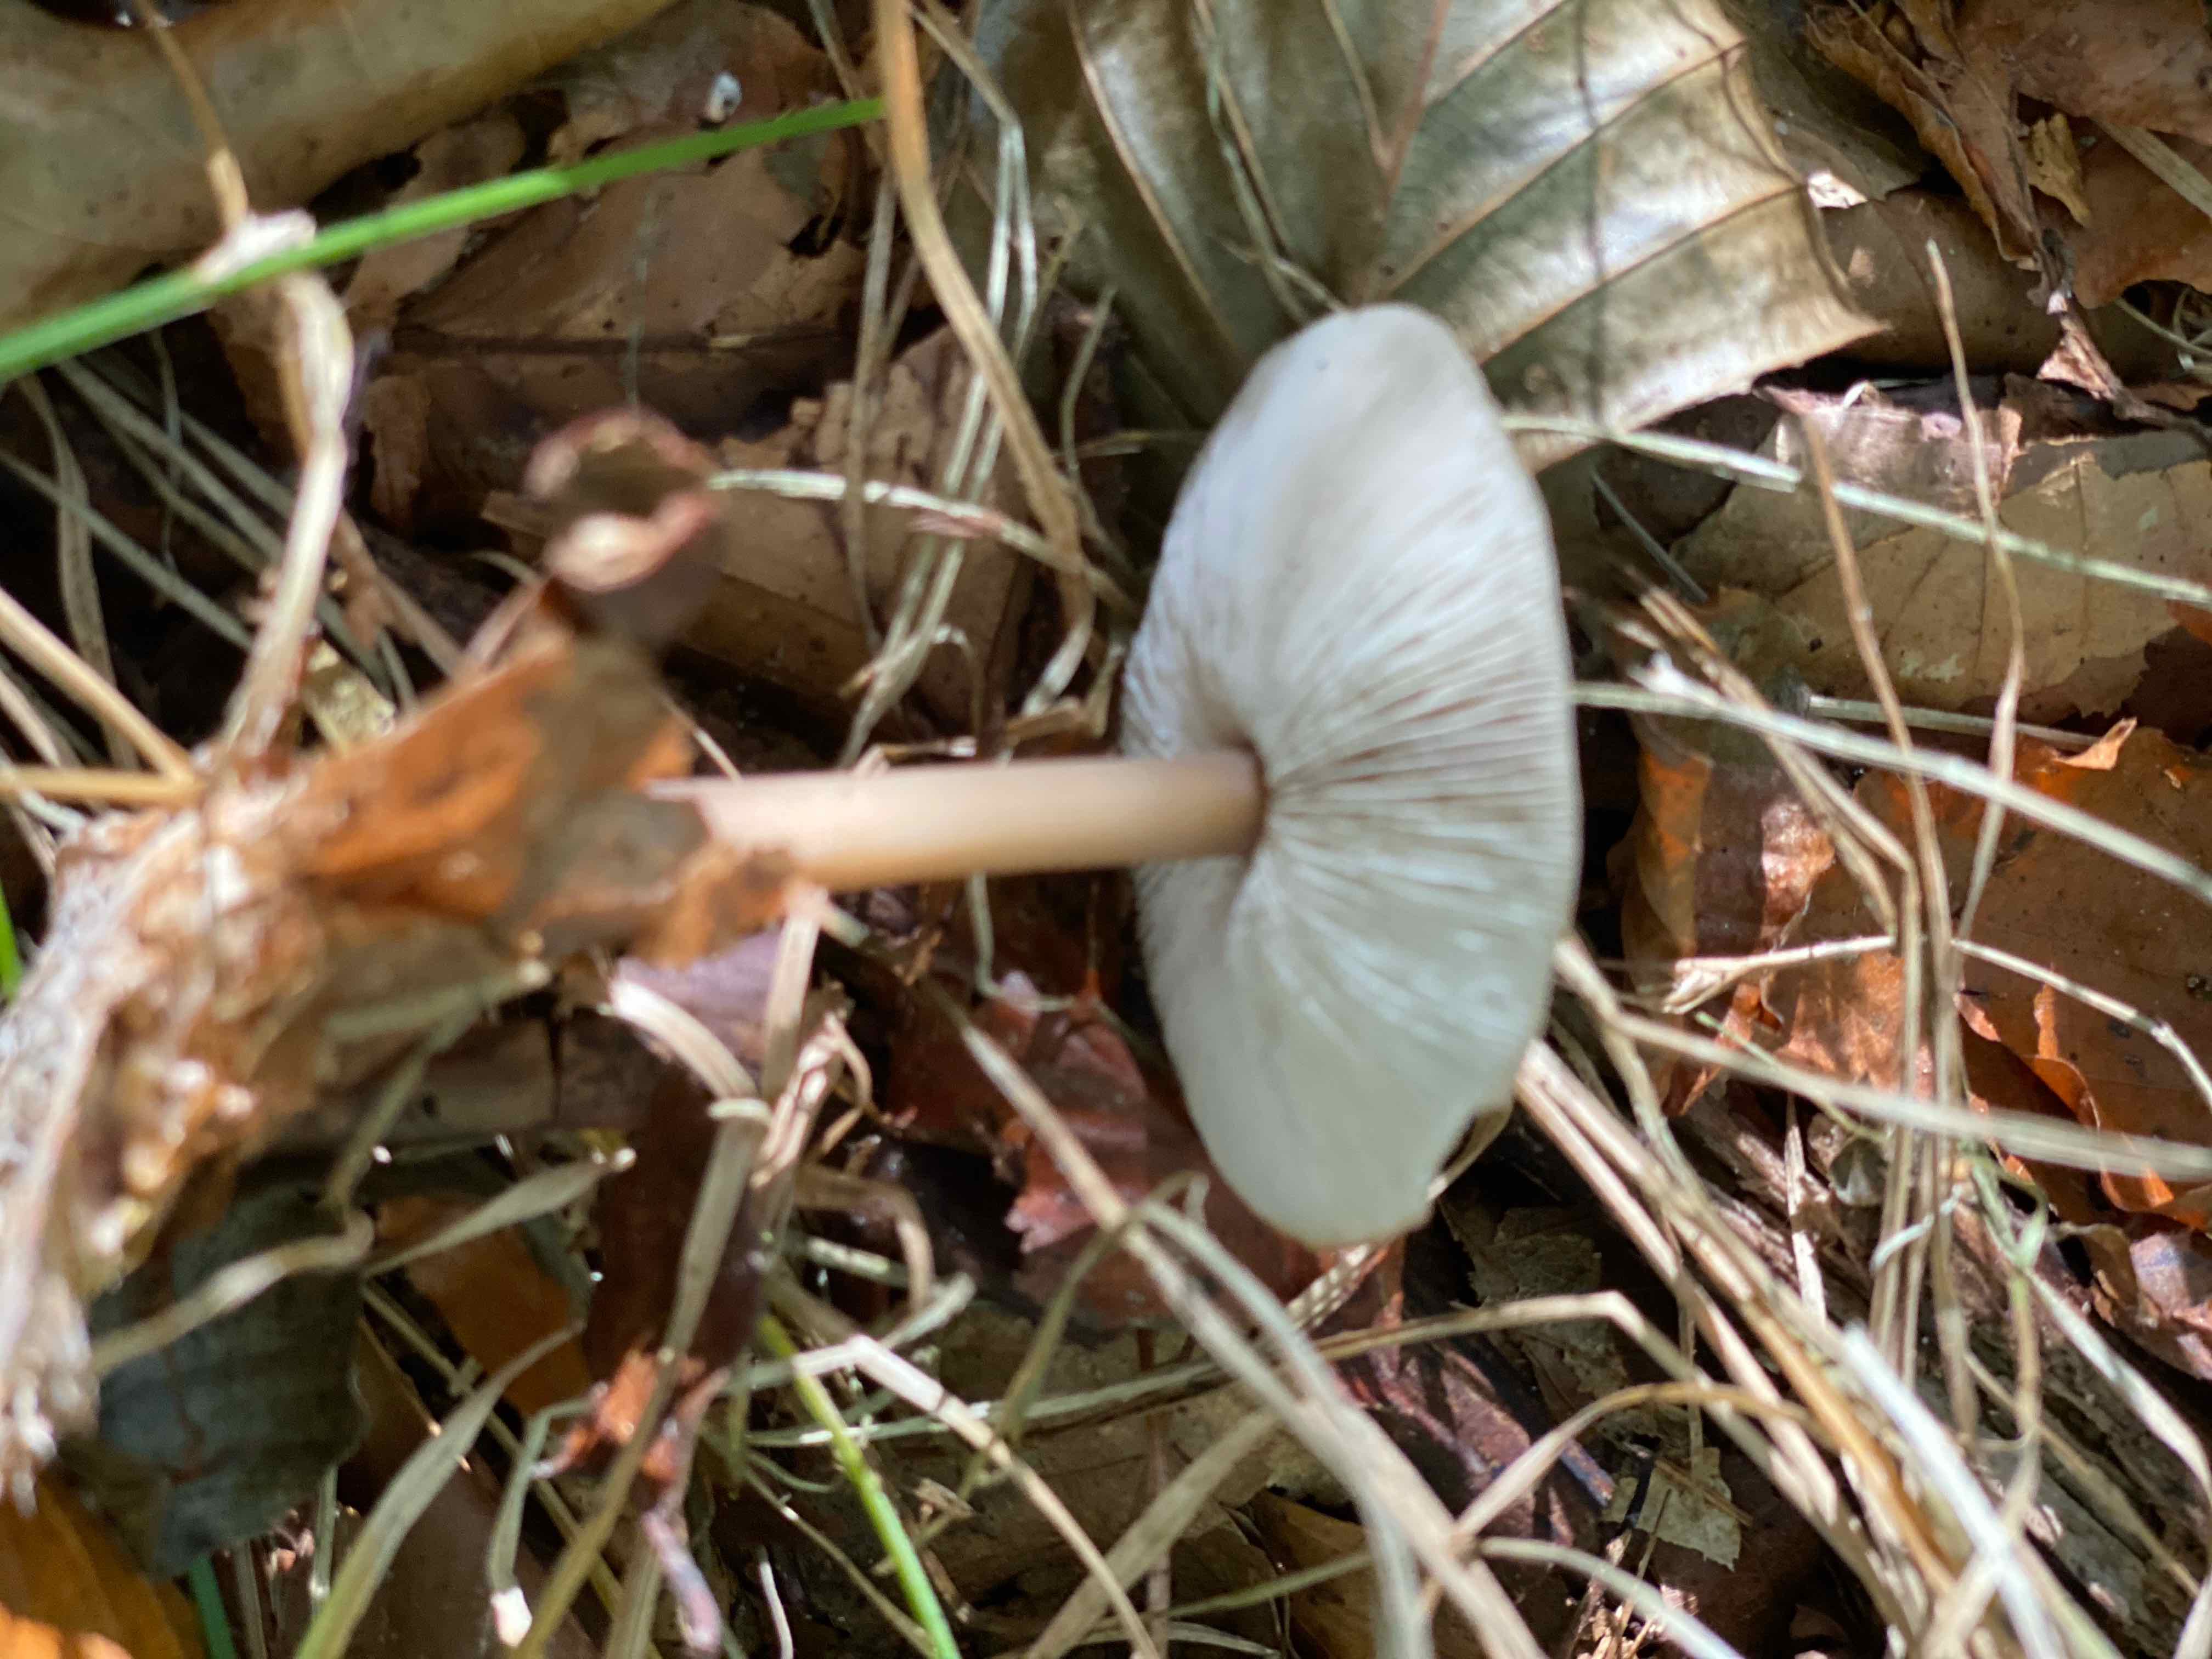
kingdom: Fungi
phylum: Basidiomycota
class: Agaricomycetes
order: Agaricales
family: Omphalotaceae
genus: Rhodocollybia
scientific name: Rhodocollybia asema
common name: horngrå fladhat
